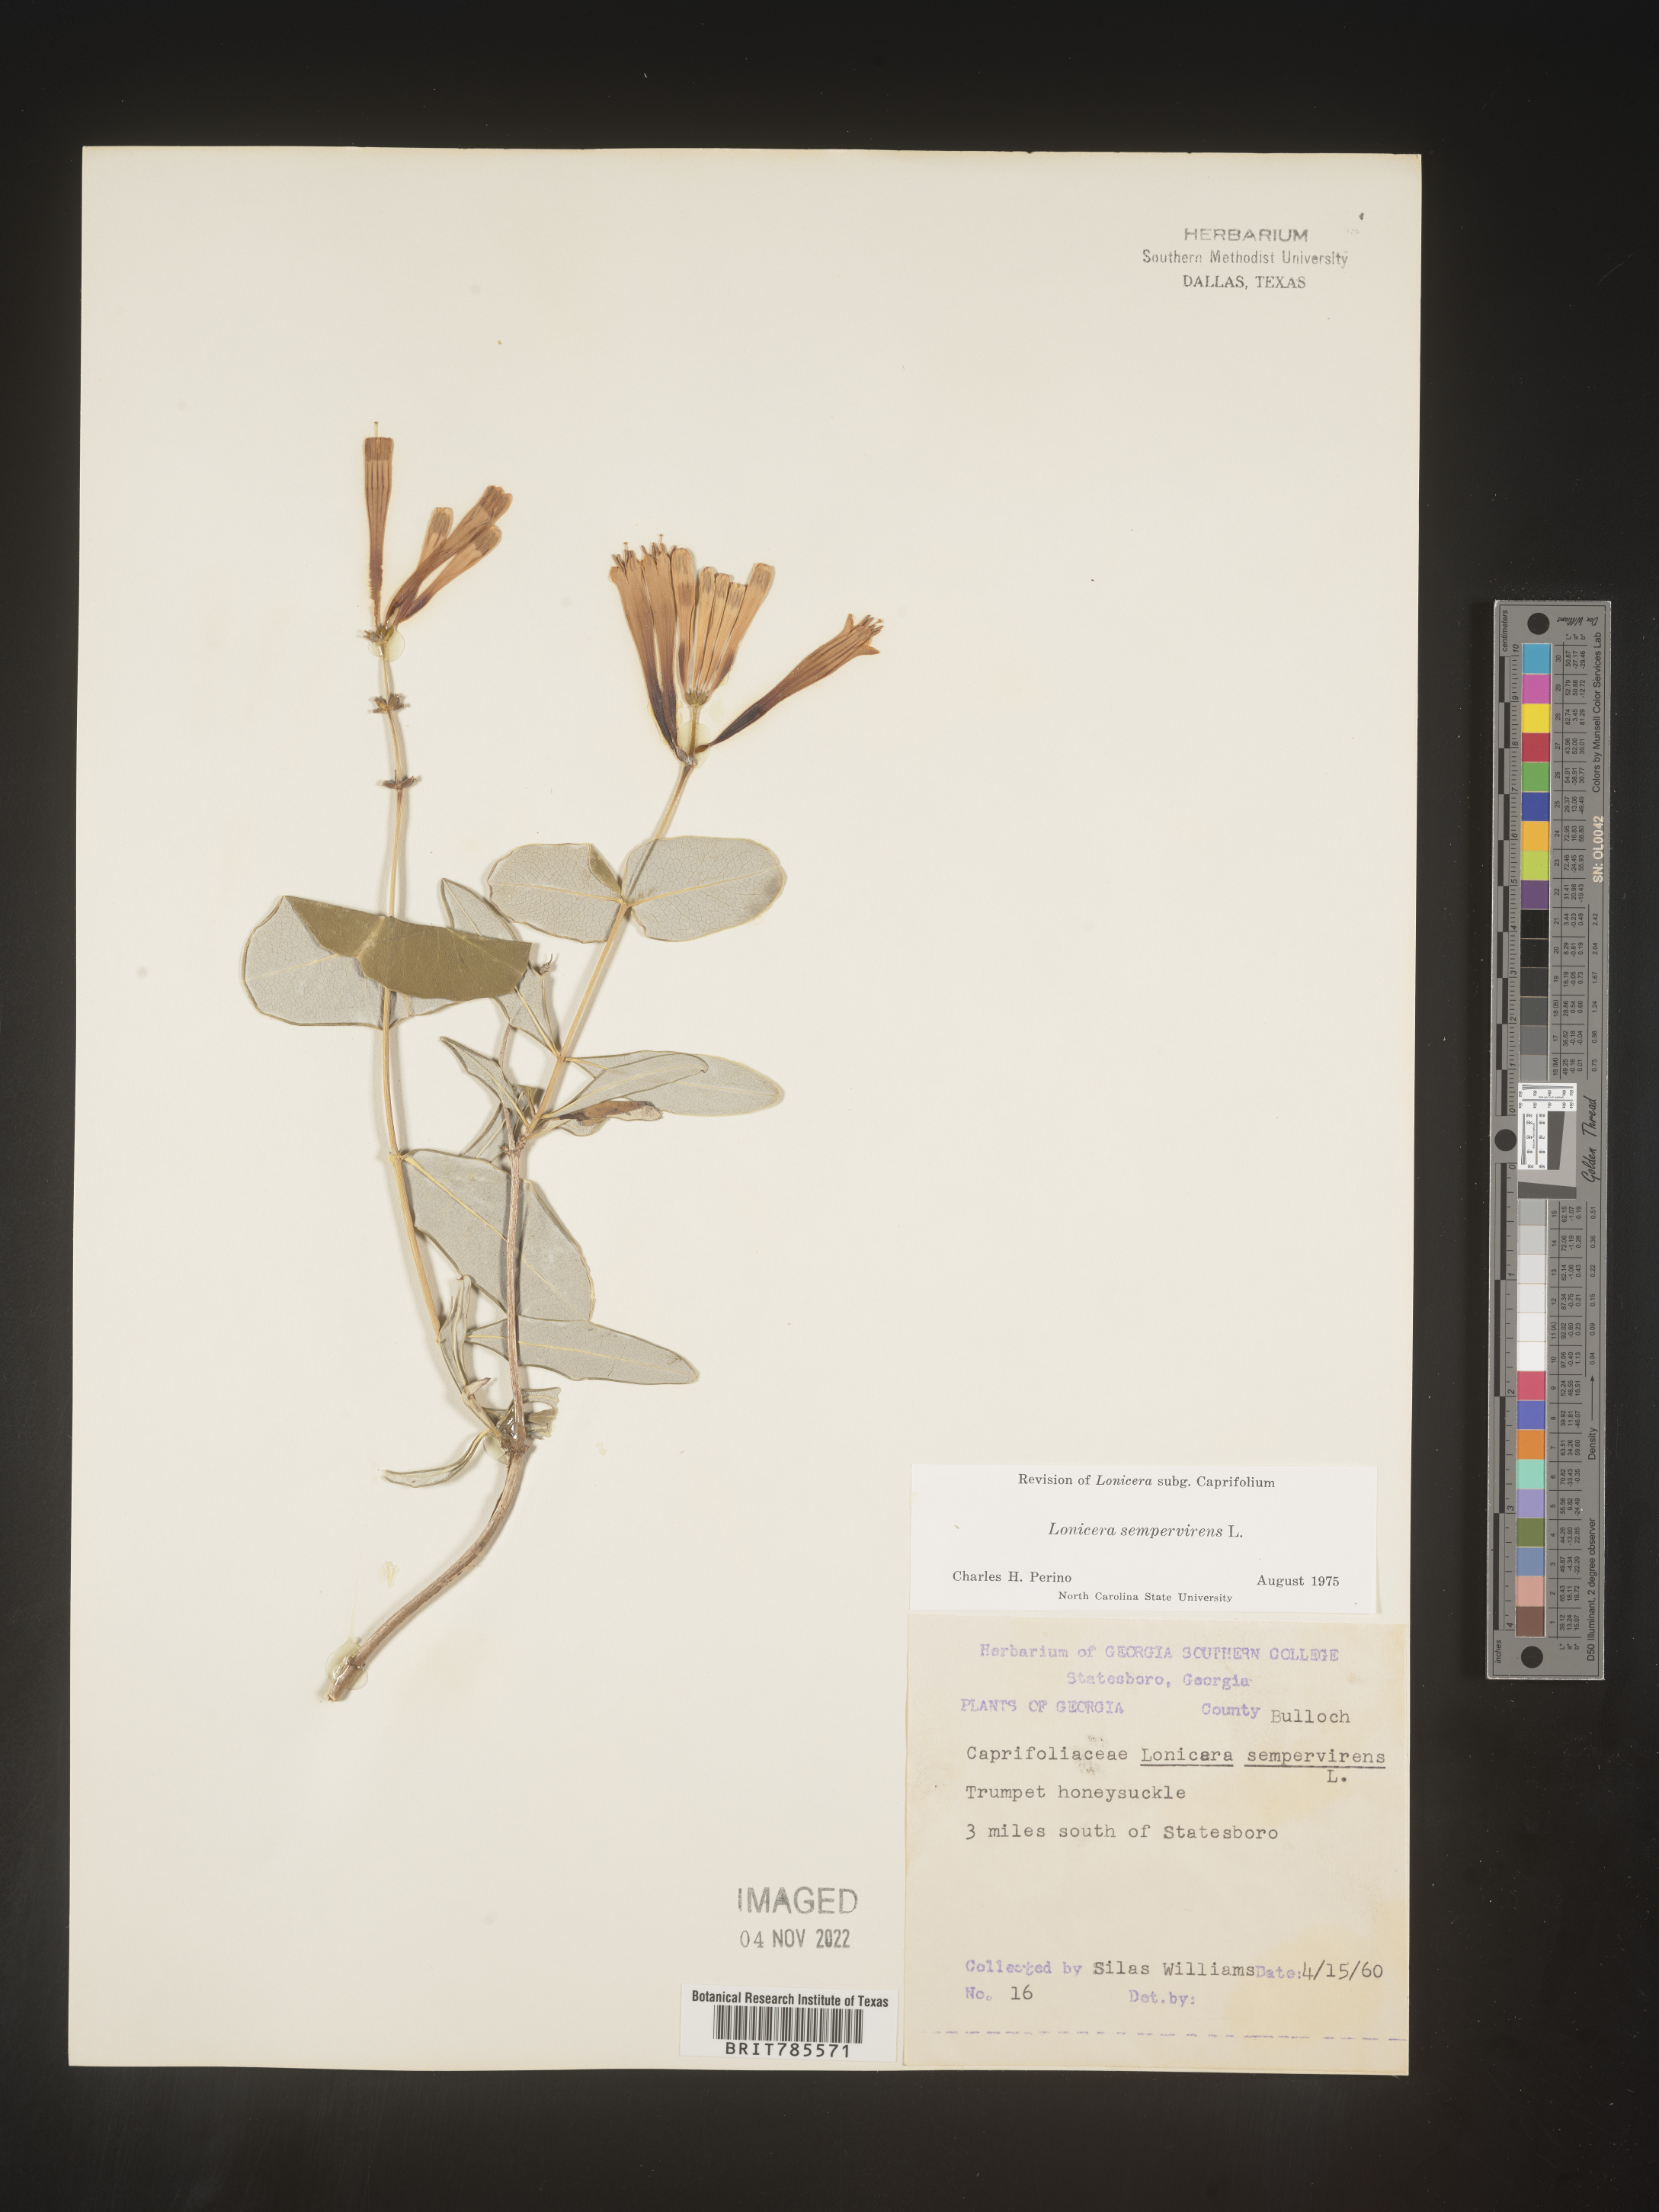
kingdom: Plantae
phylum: Tracheophyta
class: Magnoliopsida
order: Dipsacales
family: Caprifoliaceae
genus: Lonicera
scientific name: Lonicera sempervirens
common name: Coral honeysuckle
